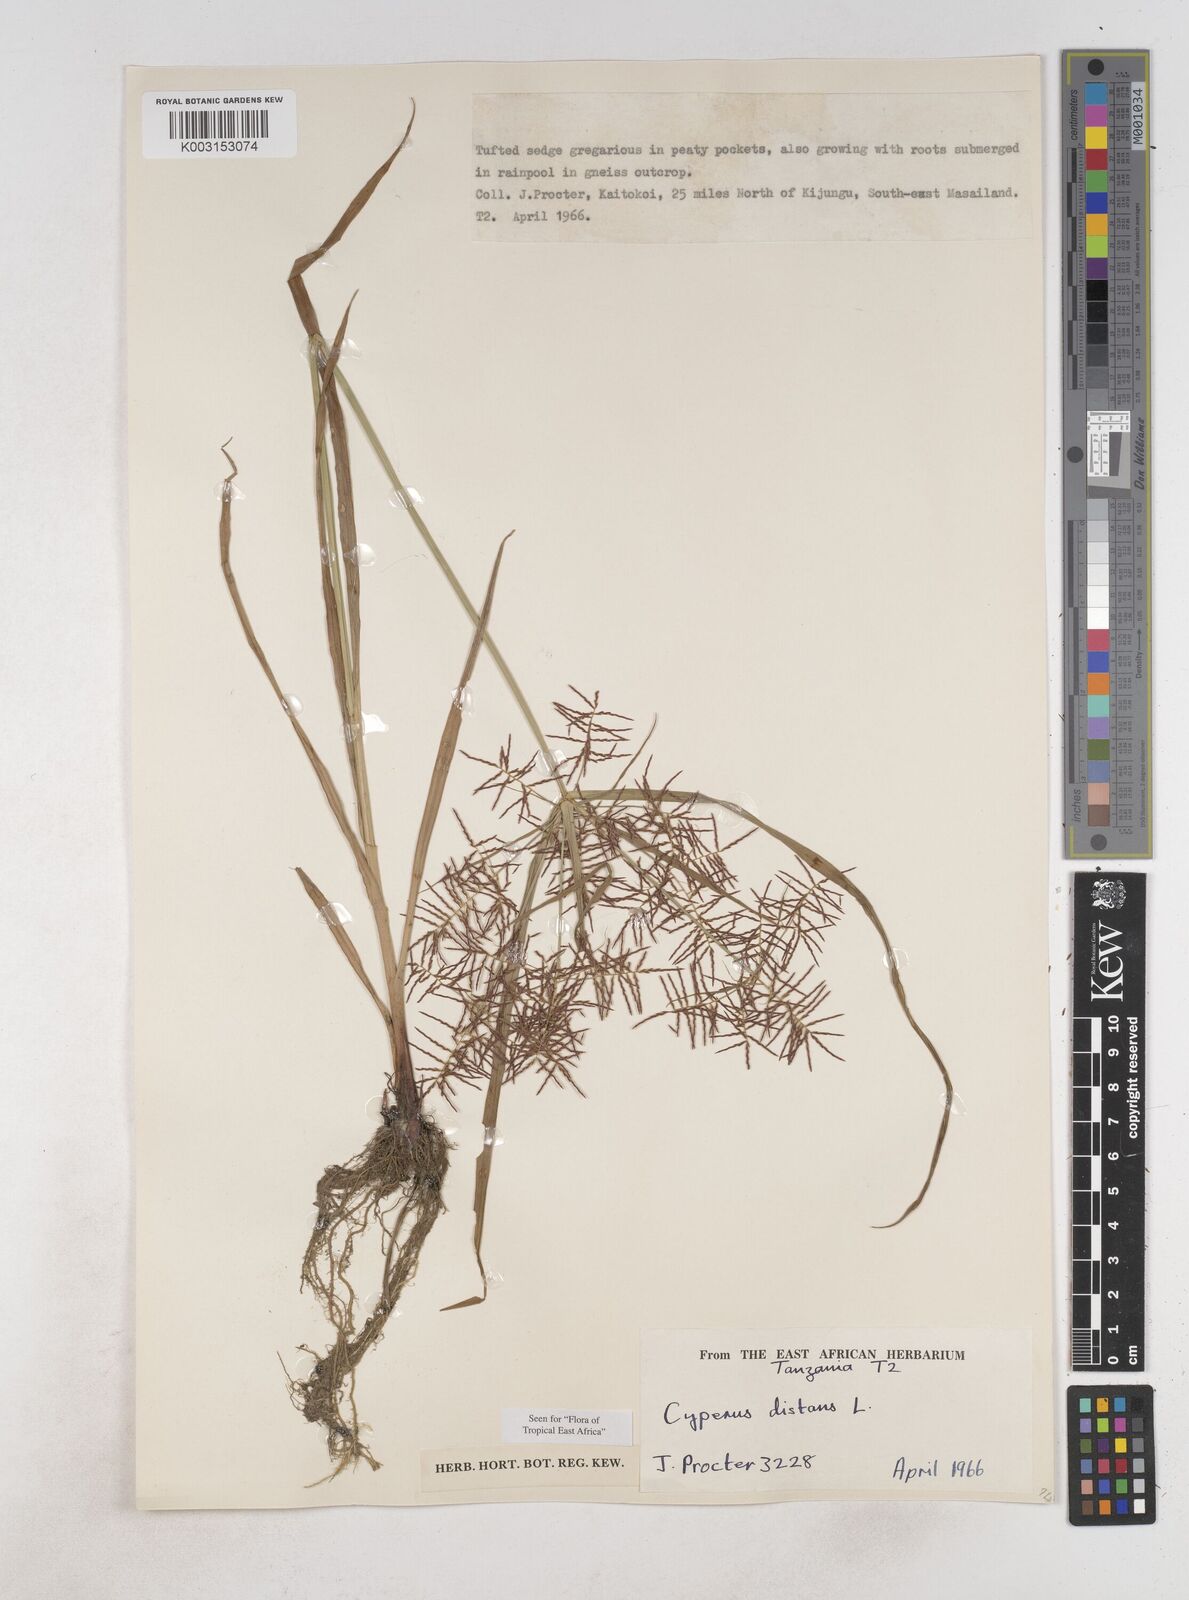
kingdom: Plantae
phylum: Tracheophyta
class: Liliopsida
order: Poales
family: Cyperaceae
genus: Cyperus
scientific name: Cyperus distans
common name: Slender cyperus
